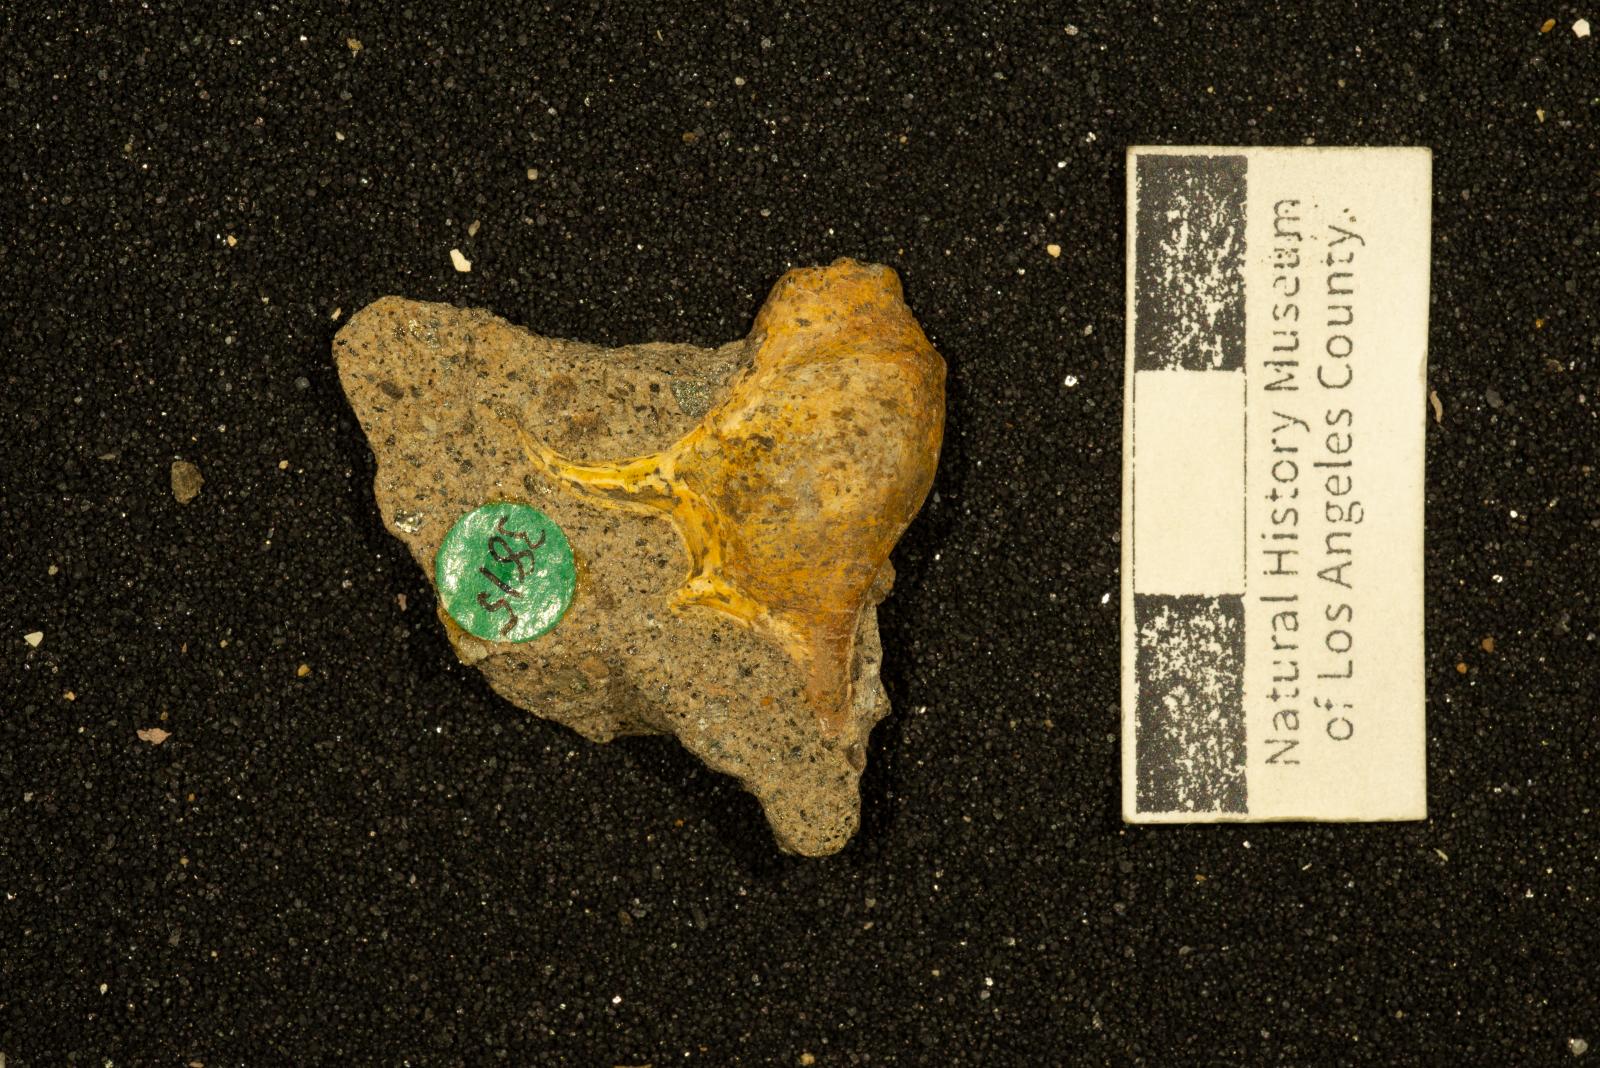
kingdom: Animalia
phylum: Mollusca
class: Gastropoda
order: Littorinimorpha
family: Aporrhaidae
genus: Lispodesthes
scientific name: Lispodesthes Pugnellus rotundus
